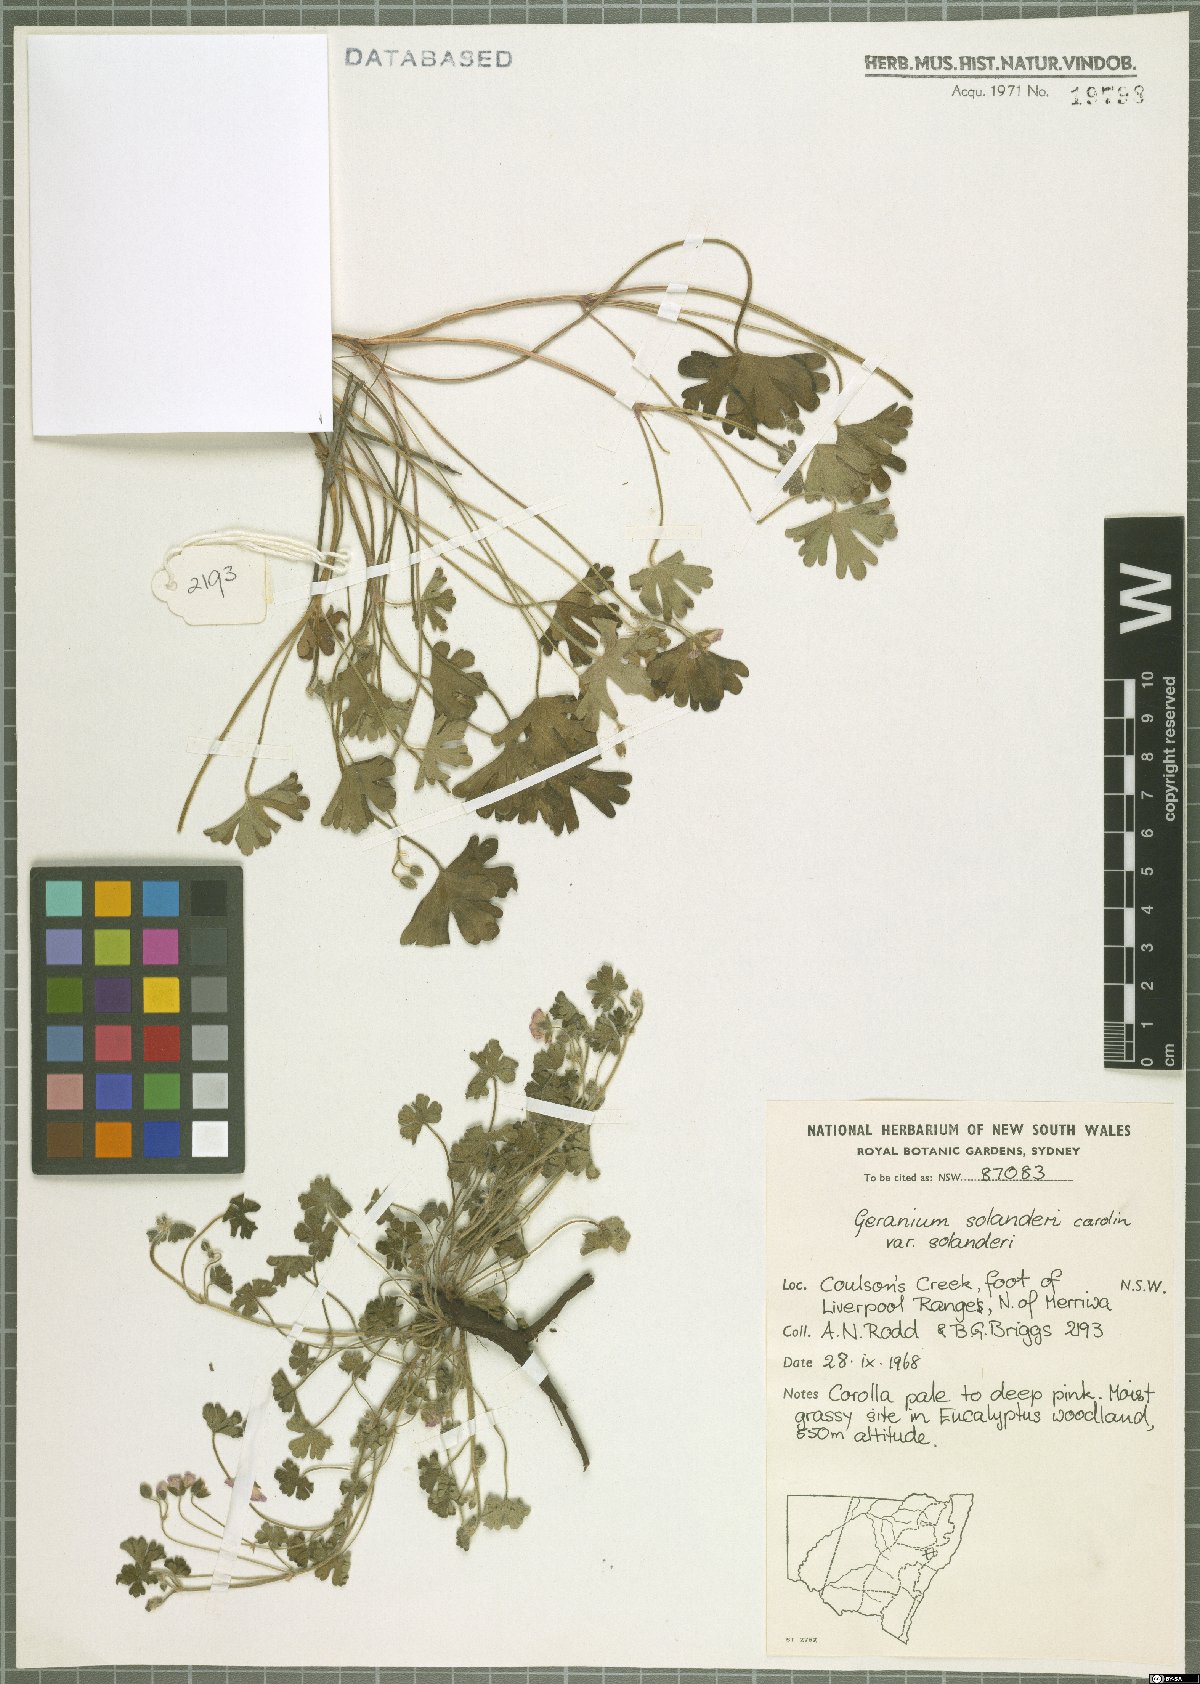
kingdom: Plantae
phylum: Tracheophyta
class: Magnoliopsida
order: Geraniales
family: Geraniaceae
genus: Geranium
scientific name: Geranium solanderi
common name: Solander's geranium
